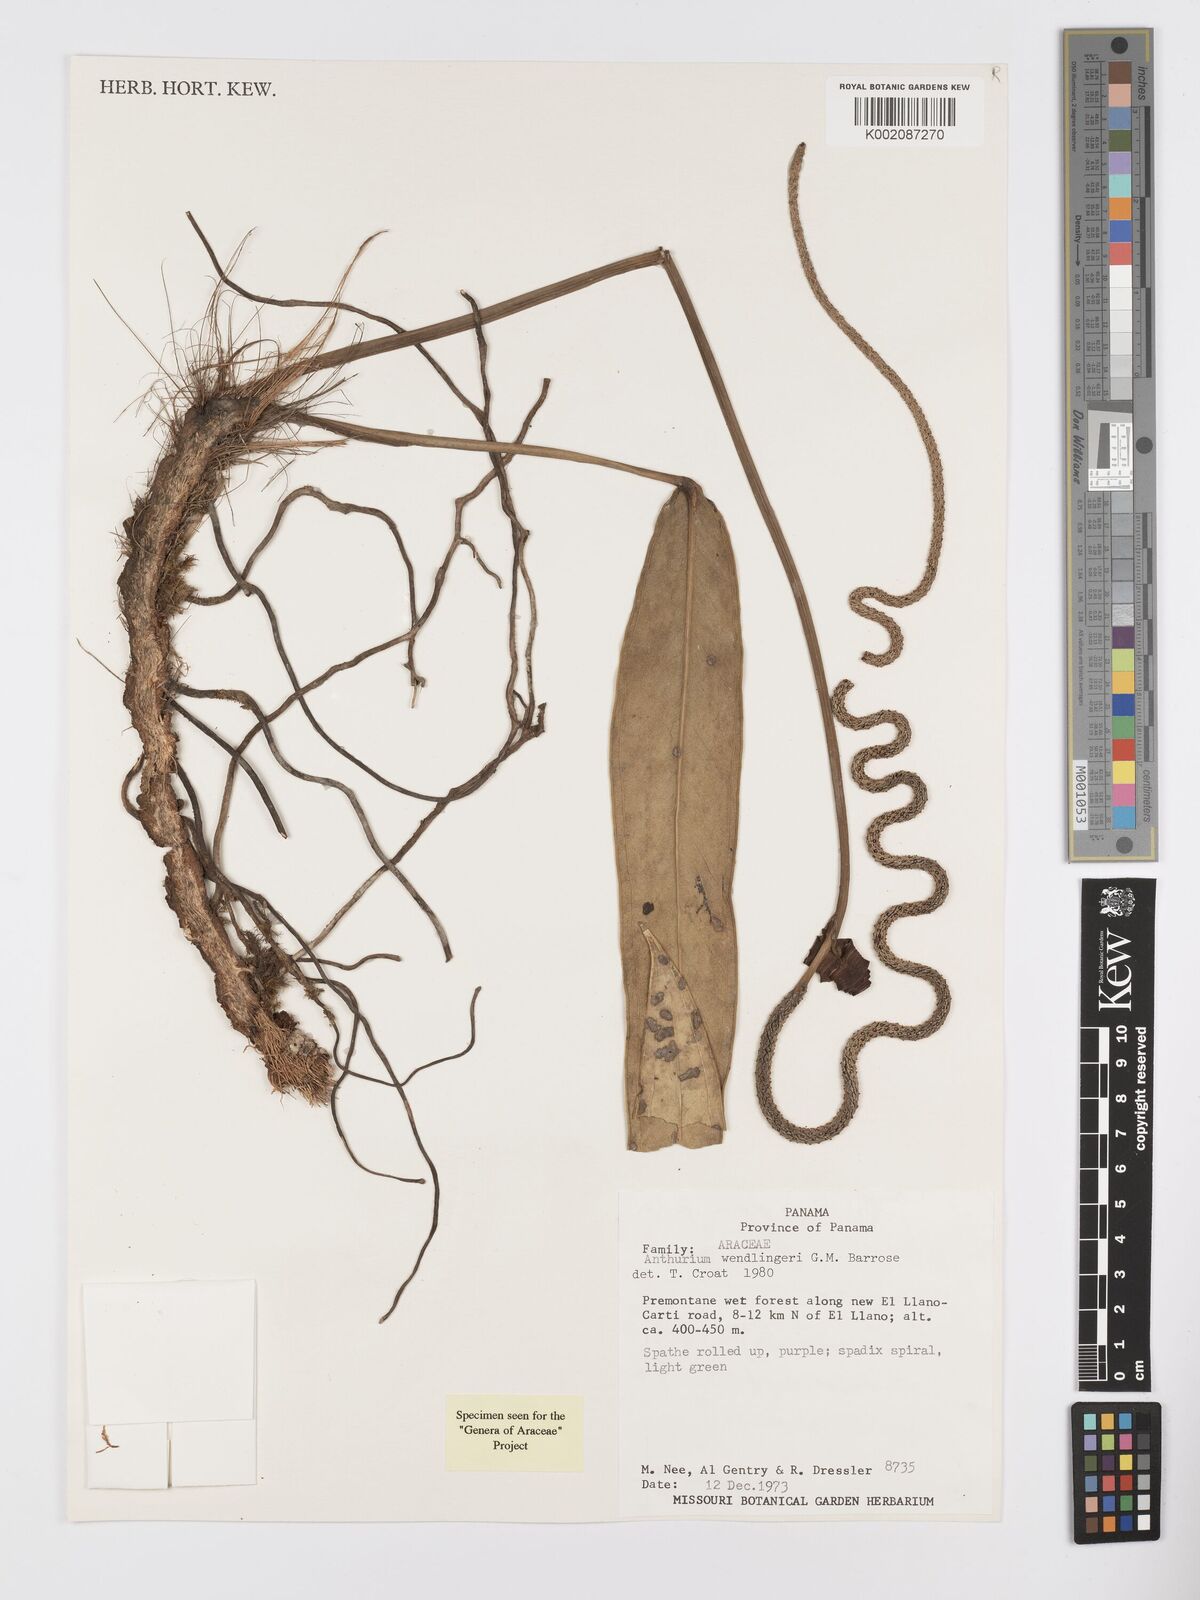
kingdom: Plantae
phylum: Tracheophyta
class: Liliopsida
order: Alismatales
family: Araceae
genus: Anthurium
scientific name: Anthurium wendlingeri
